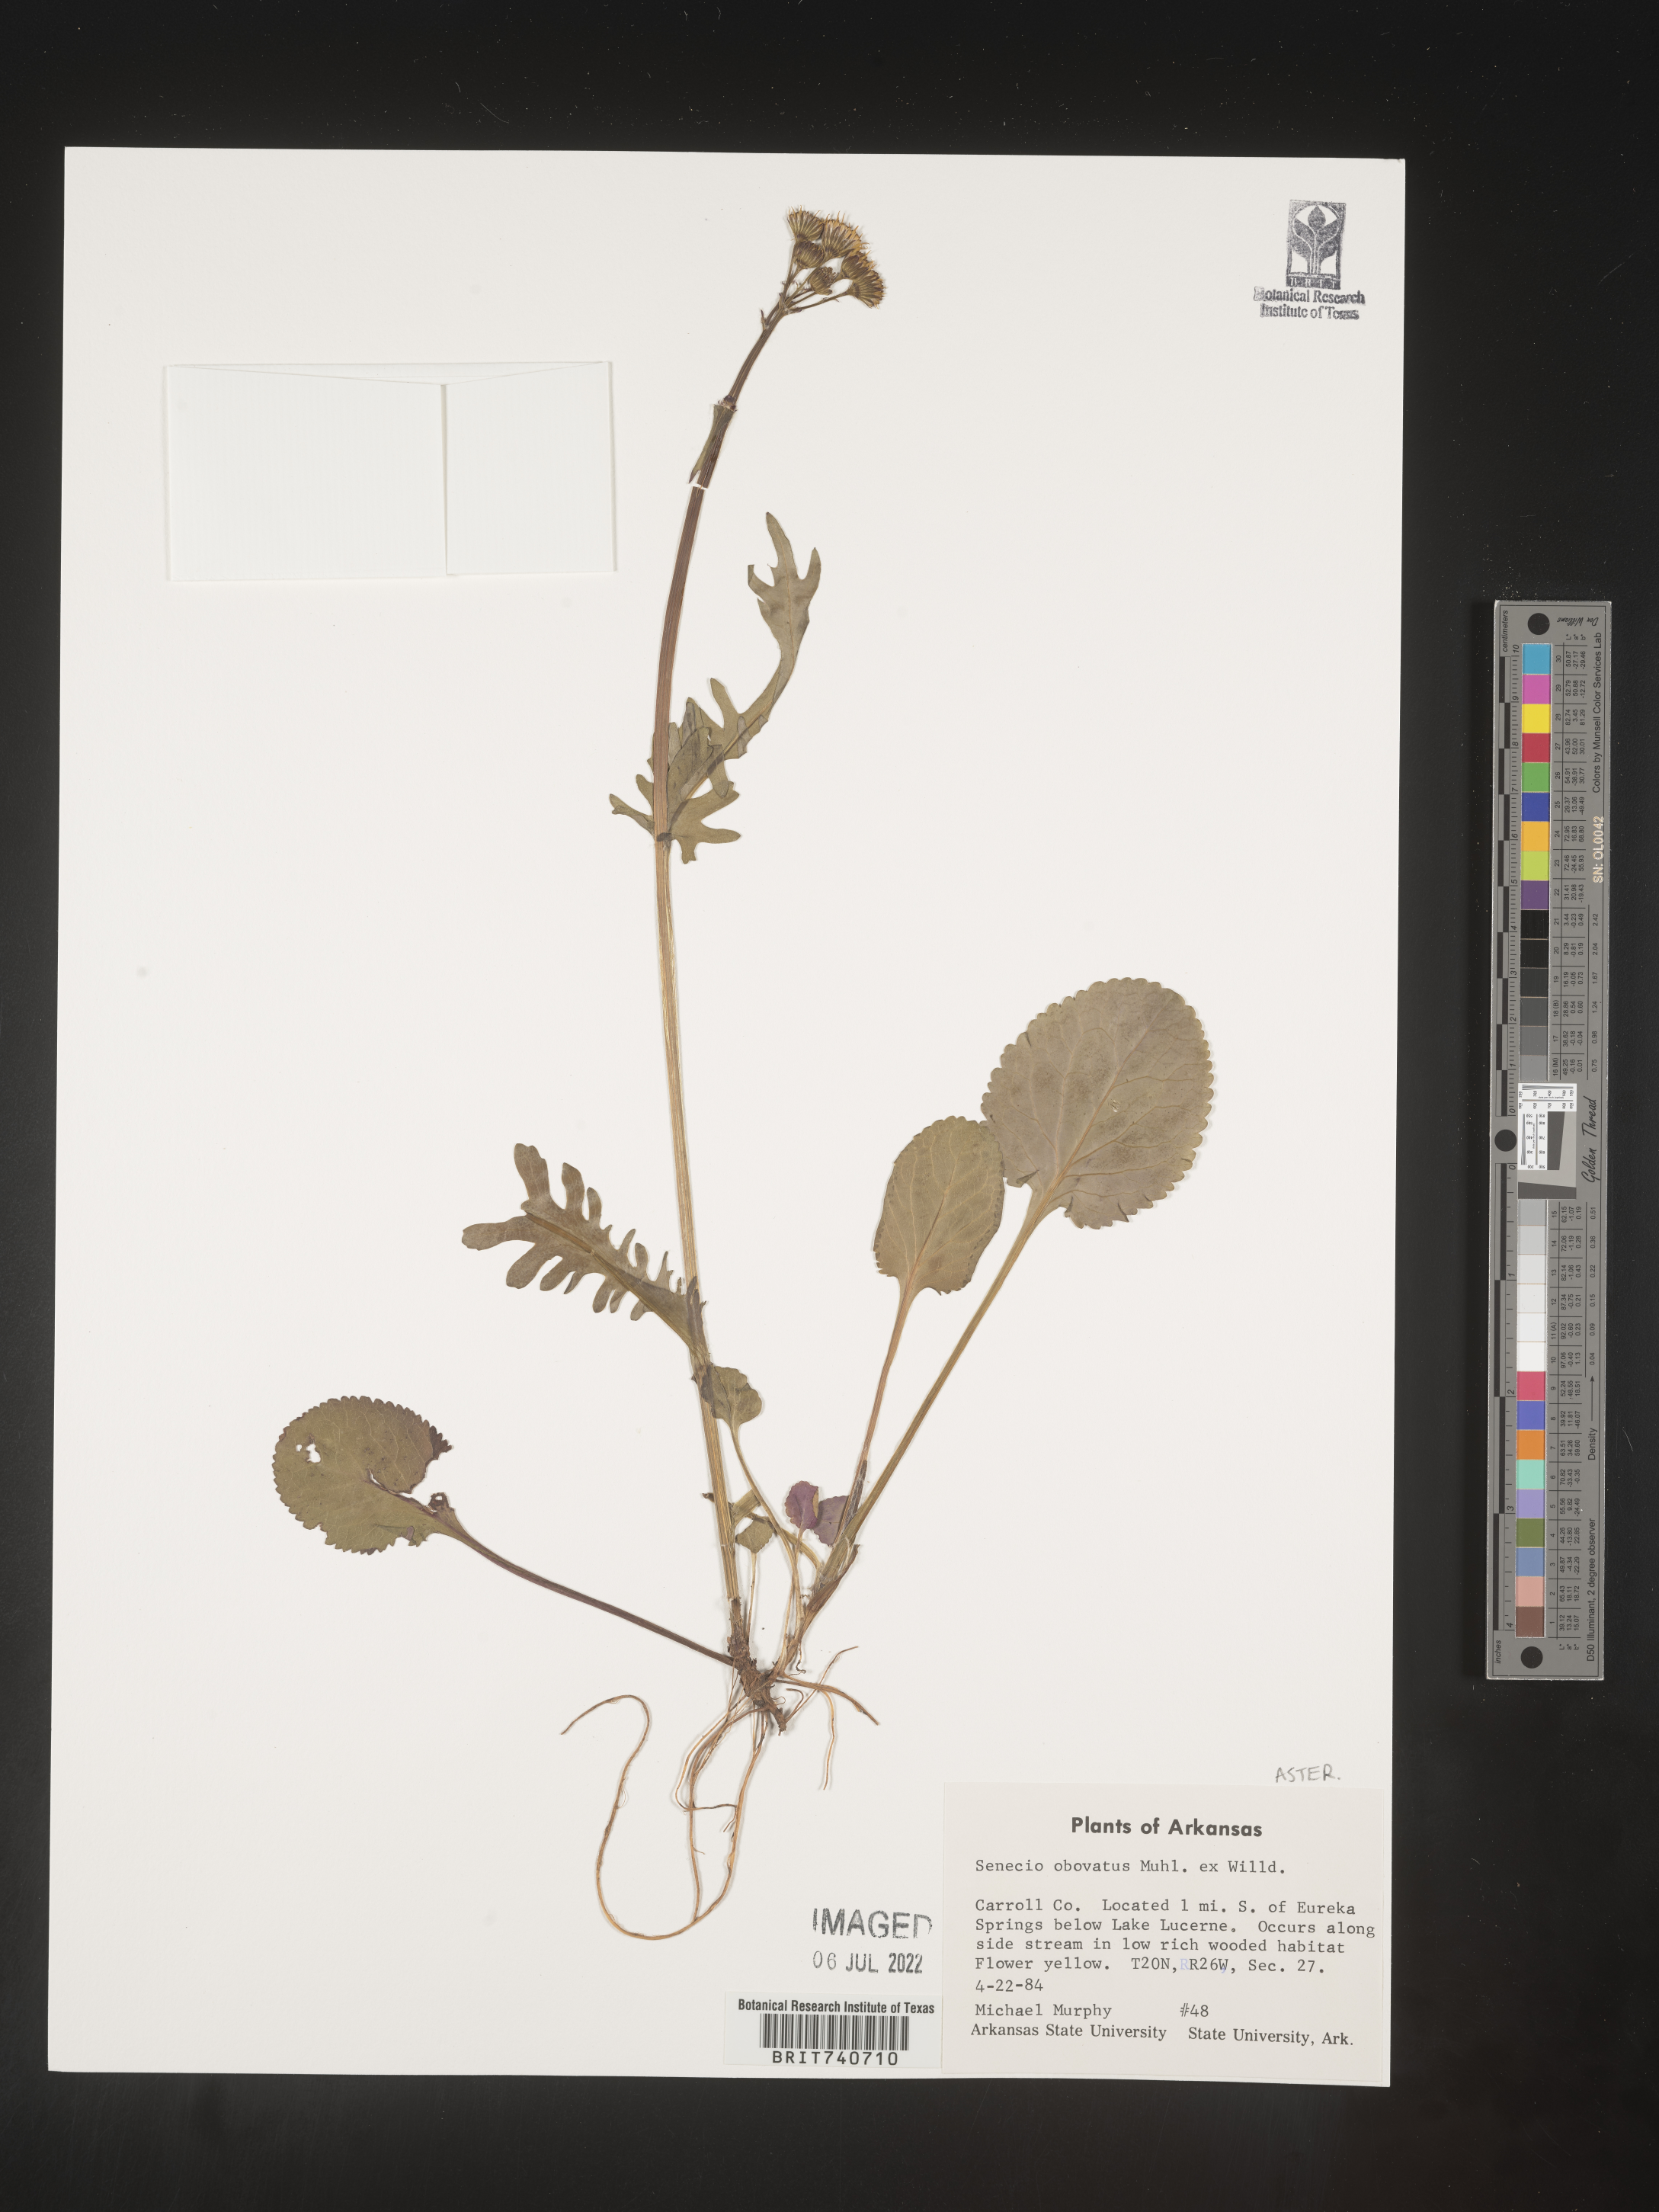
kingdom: Plantae
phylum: Tracheophyta
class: Magnoliopsida
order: Asterales
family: Asteraceae
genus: Senecio
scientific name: Senecio
